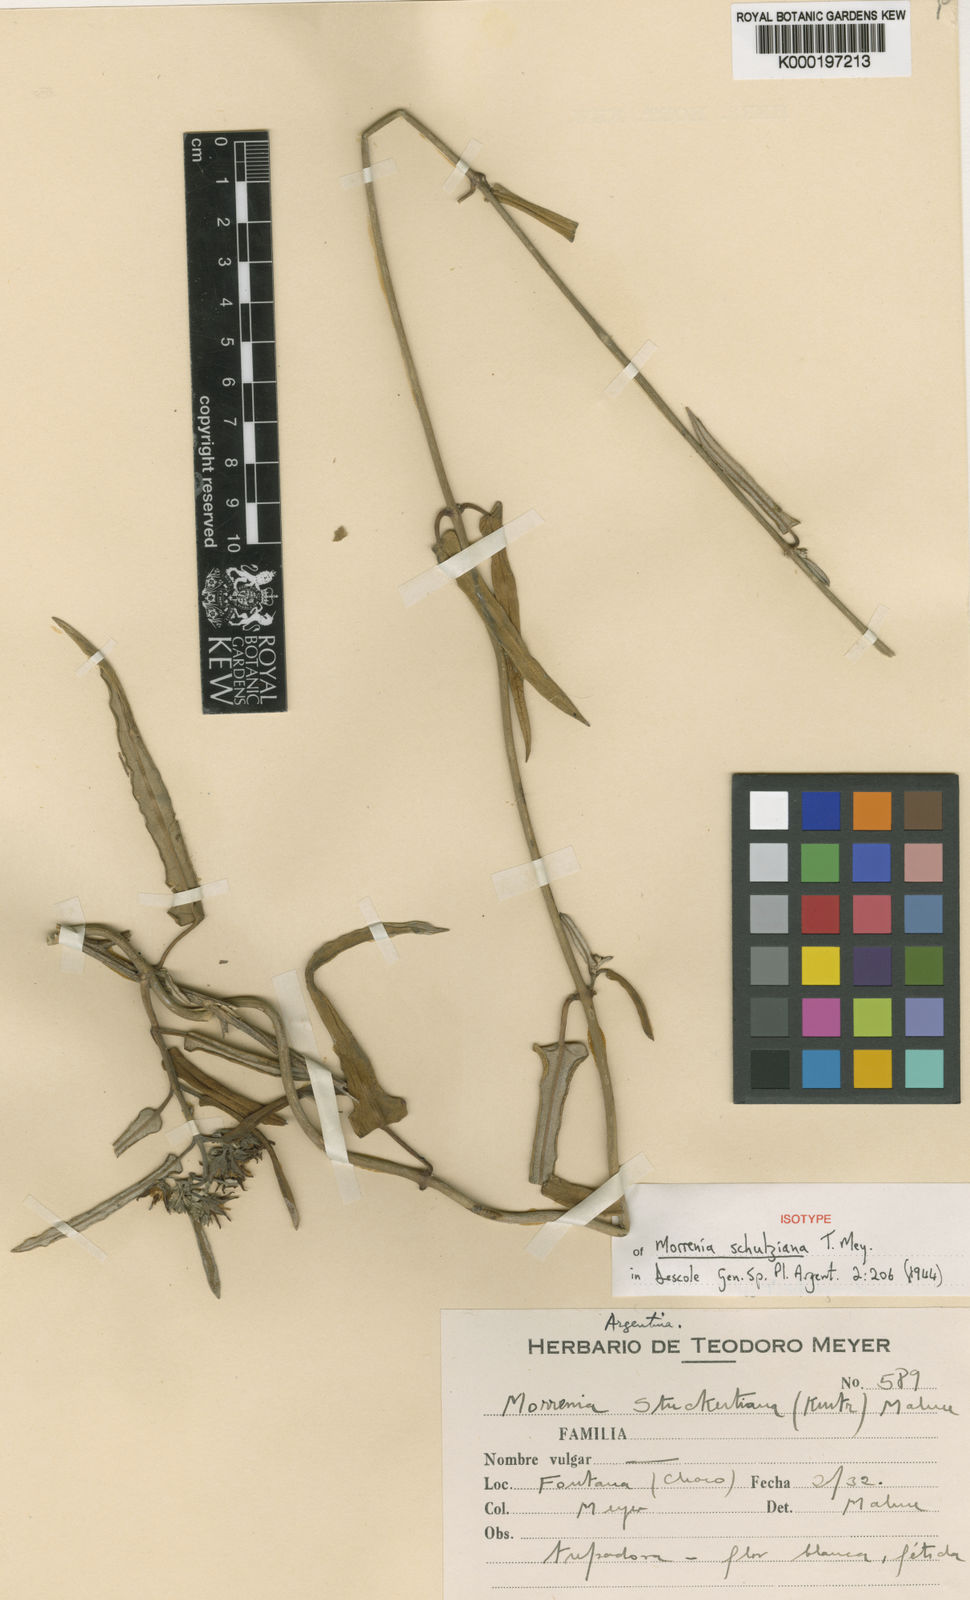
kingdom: Plantae
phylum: Tracheophyta
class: Magnoliopsida
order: Gentianales
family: Apocynaceae
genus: Araujia
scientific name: Araujia stormiana
